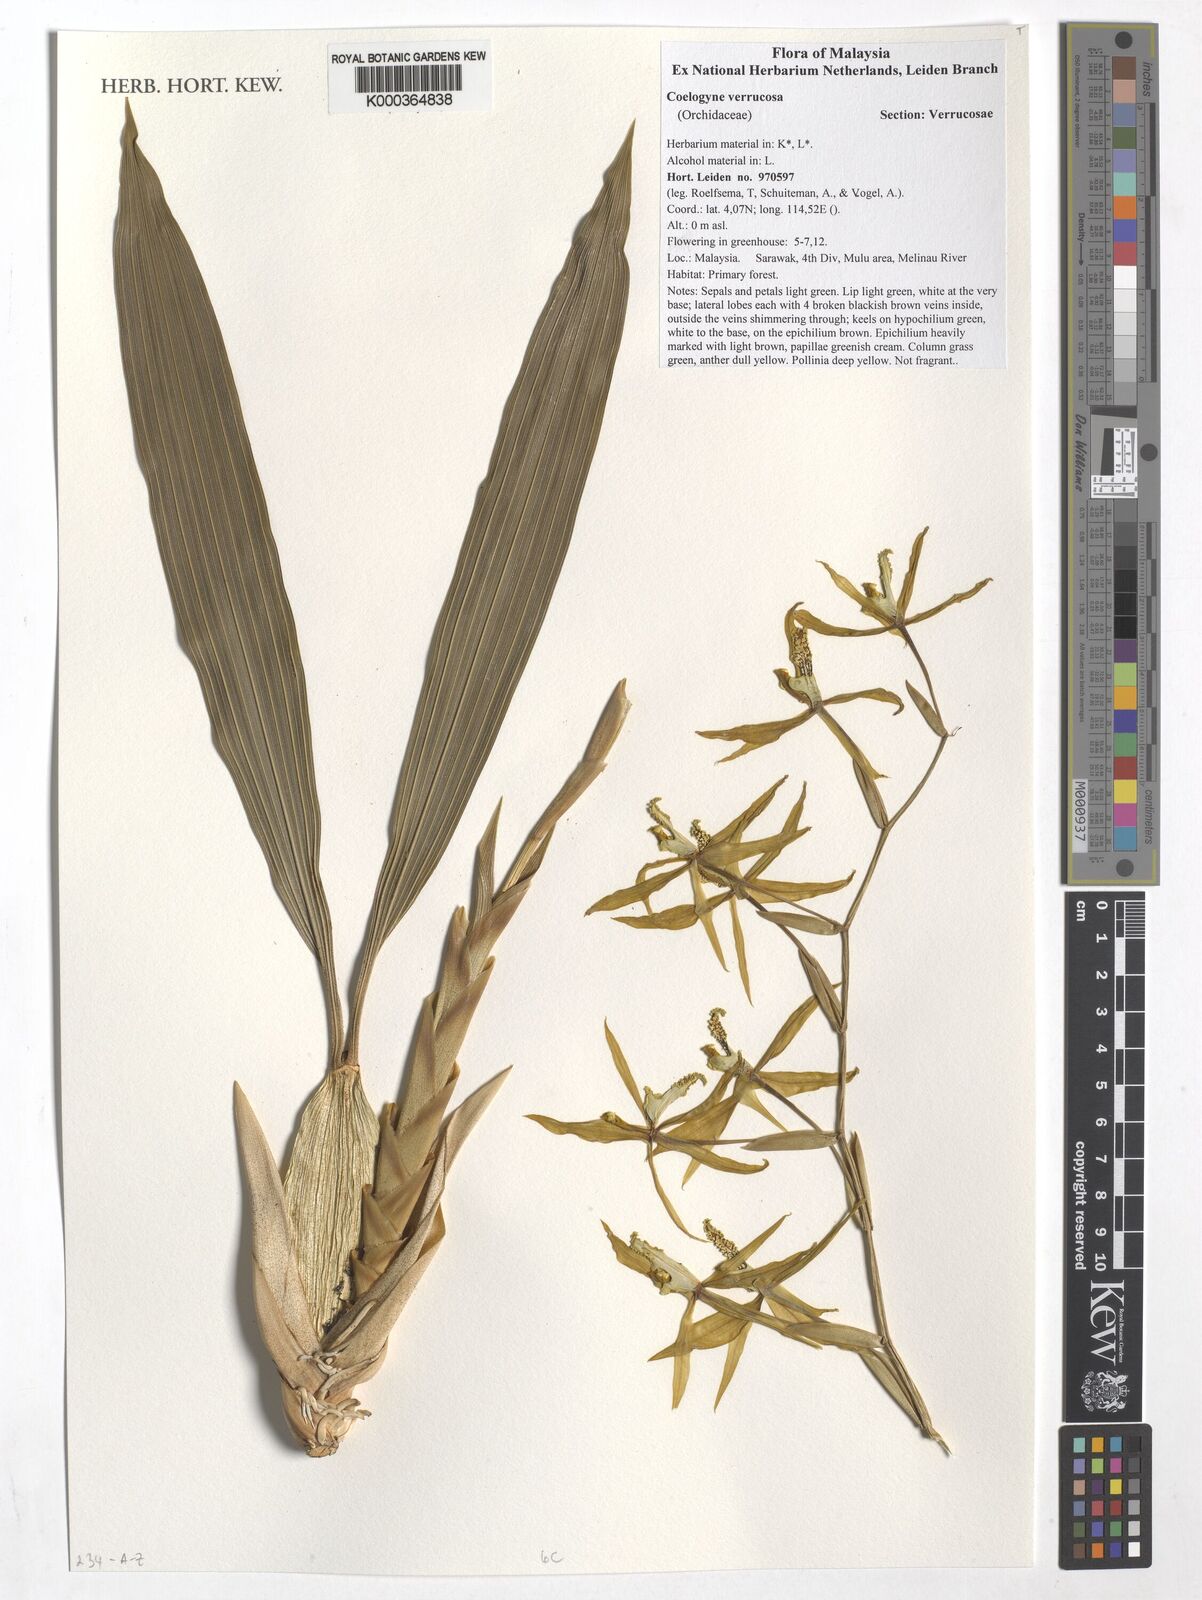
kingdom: Plantae
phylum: Tracheophyta
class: Liliopsida
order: Asparagales
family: Orchidaceae
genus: Coelogyne
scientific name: Coelogyne verrucosa
